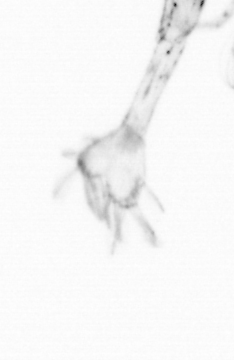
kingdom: Animalia
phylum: Arthropoda
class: Copepoda
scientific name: Copepoda
